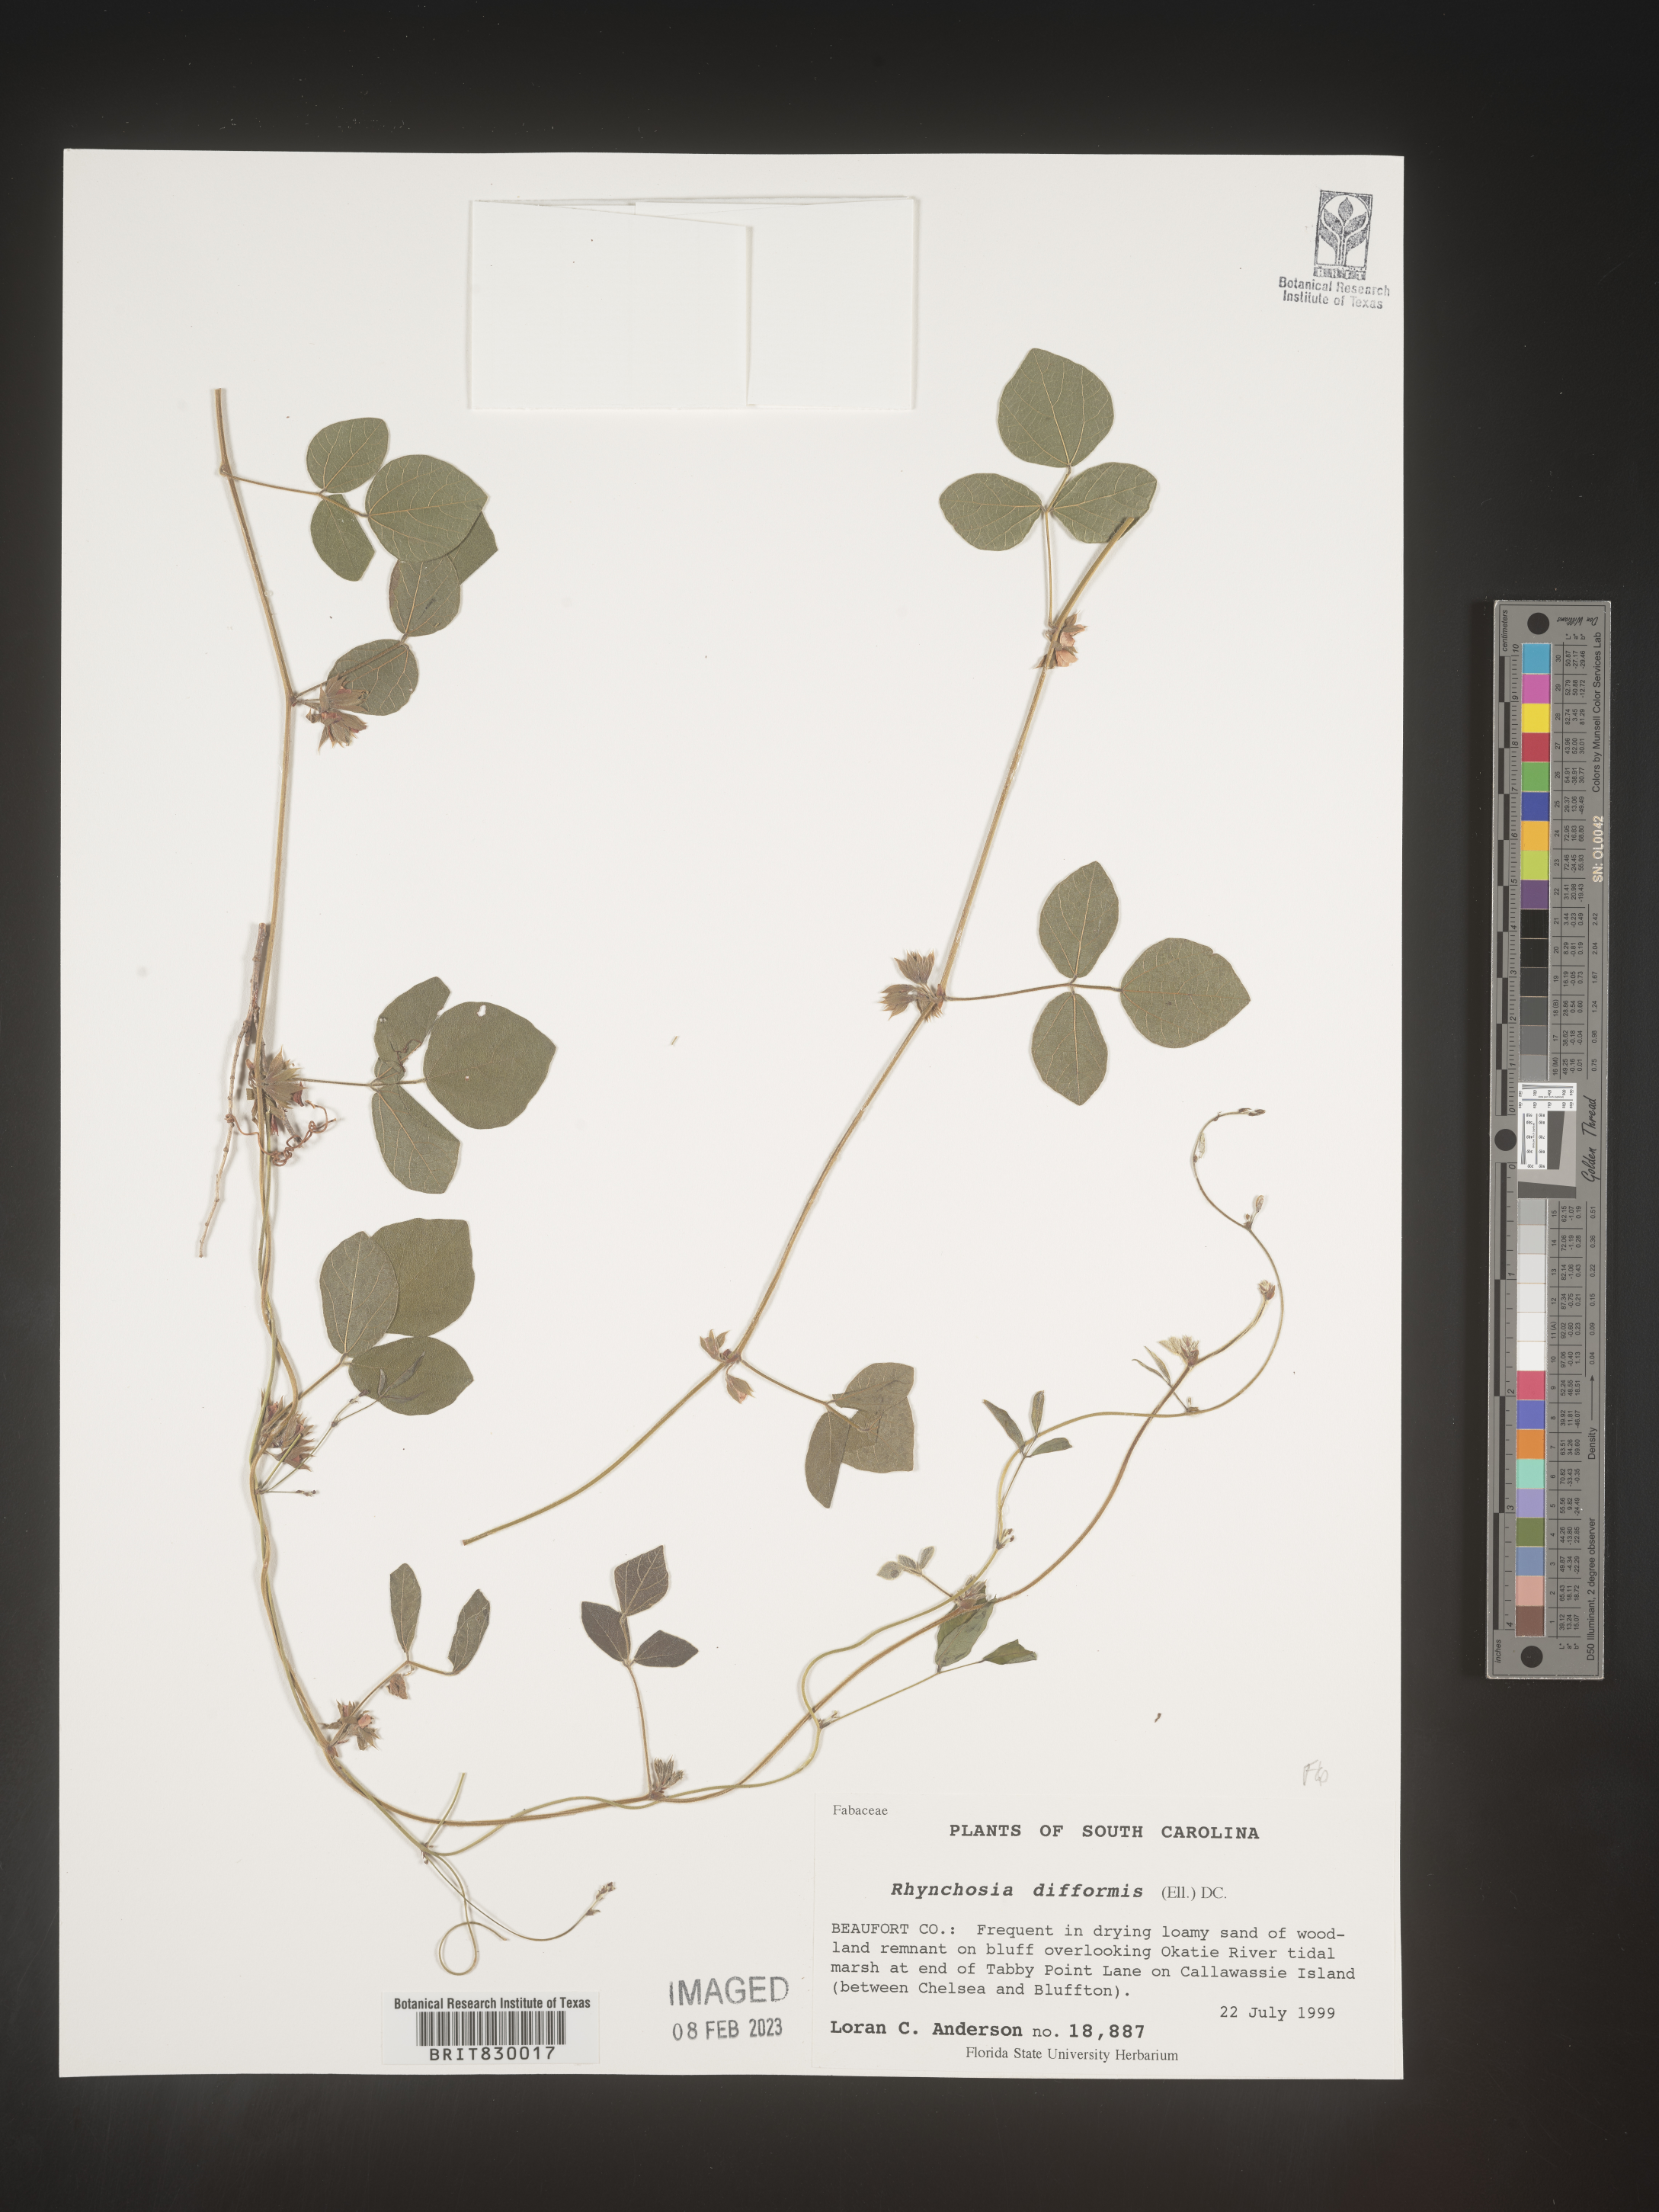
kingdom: Plantae
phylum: Tracheophyta
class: Magnoliopsida
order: Fabales
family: Fabaceae
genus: Rhynchosia
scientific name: Rhynchosia difformis
